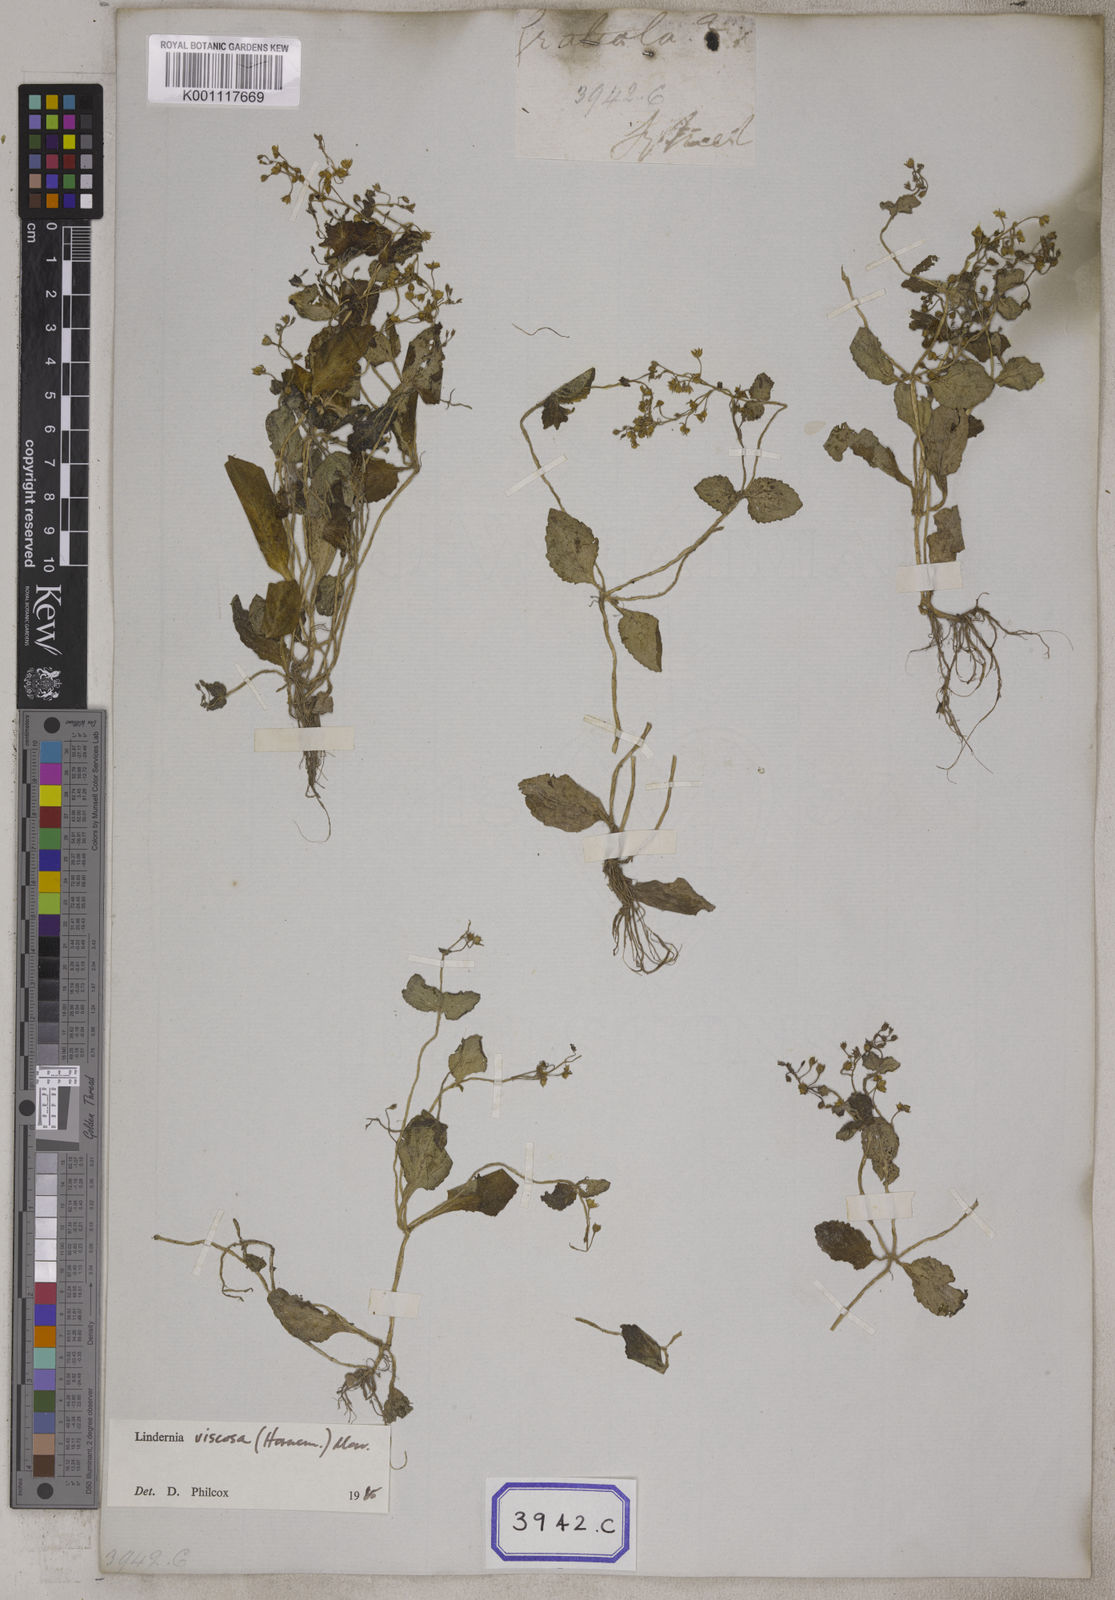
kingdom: Plantae
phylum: Tracheophyta
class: Magnoliopsida
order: Lamiales
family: Linderniaceae
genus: Yamazakia
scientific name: Yamazakia viscosa
